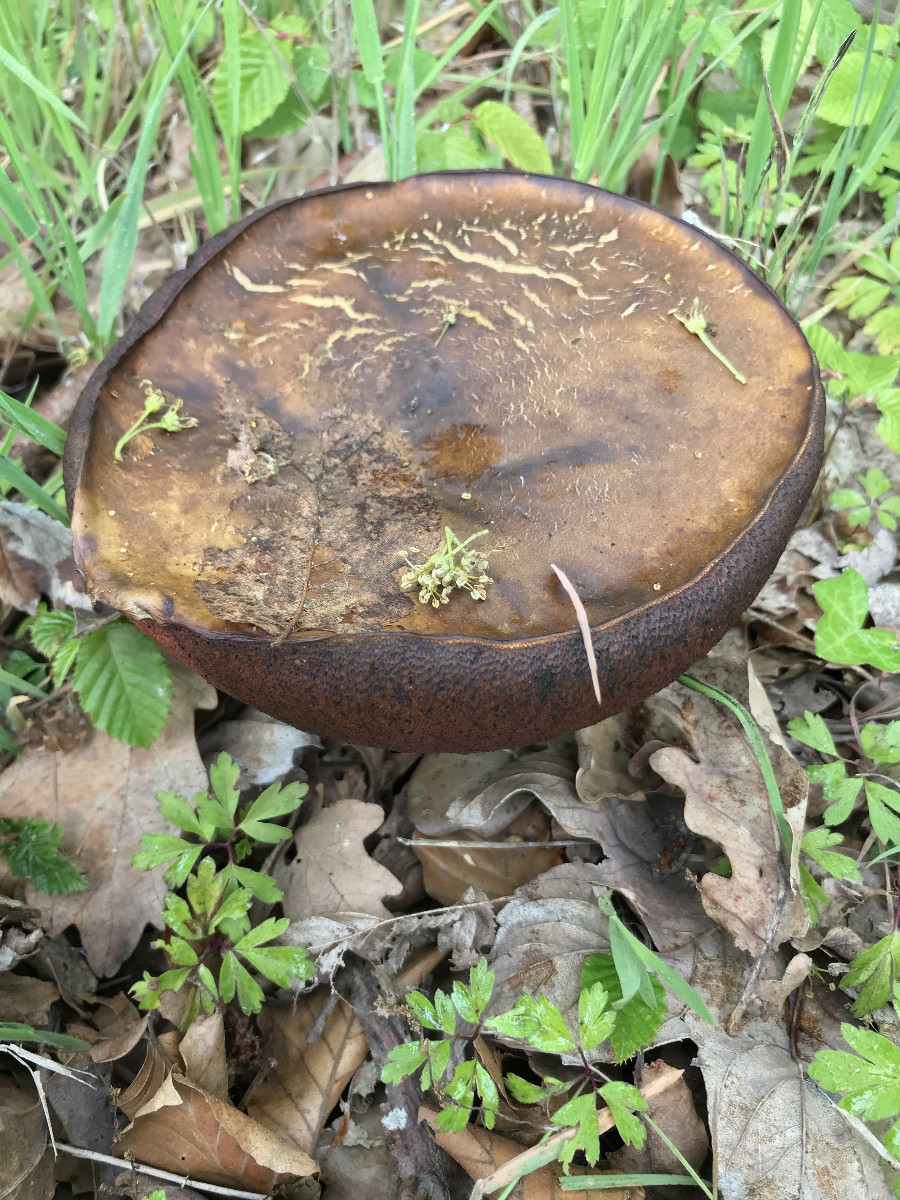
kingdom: Fungi
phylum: Basidiomycota
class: Agaricomycetes
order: Boletales
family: Boletaceae
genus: Neoboletus
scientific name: Neoboletus erythropus
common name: punktstokket indigorørhat
